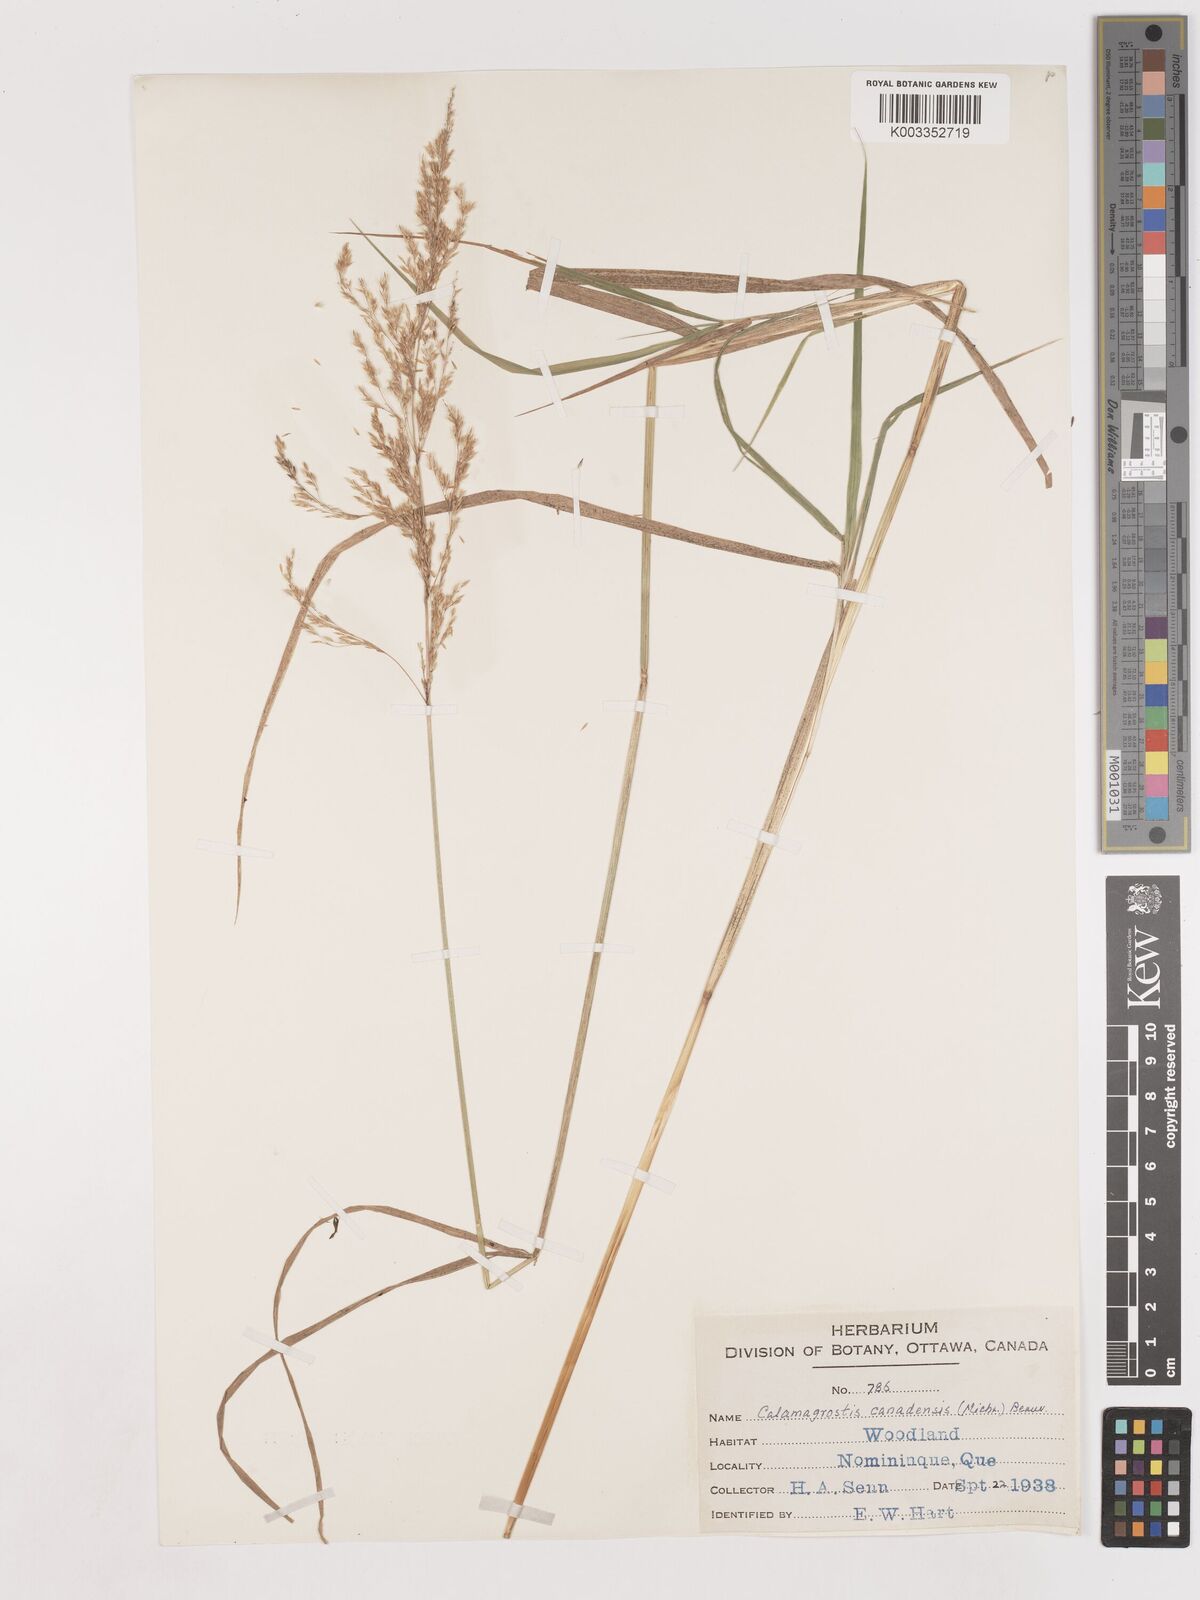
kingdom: Plantae
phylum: Tracheophyta
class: Liliopsida
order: Poales
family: Poaceae
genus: Calamagrostis
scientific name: Calamagrostis canadensis
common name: Canada bluejoint
